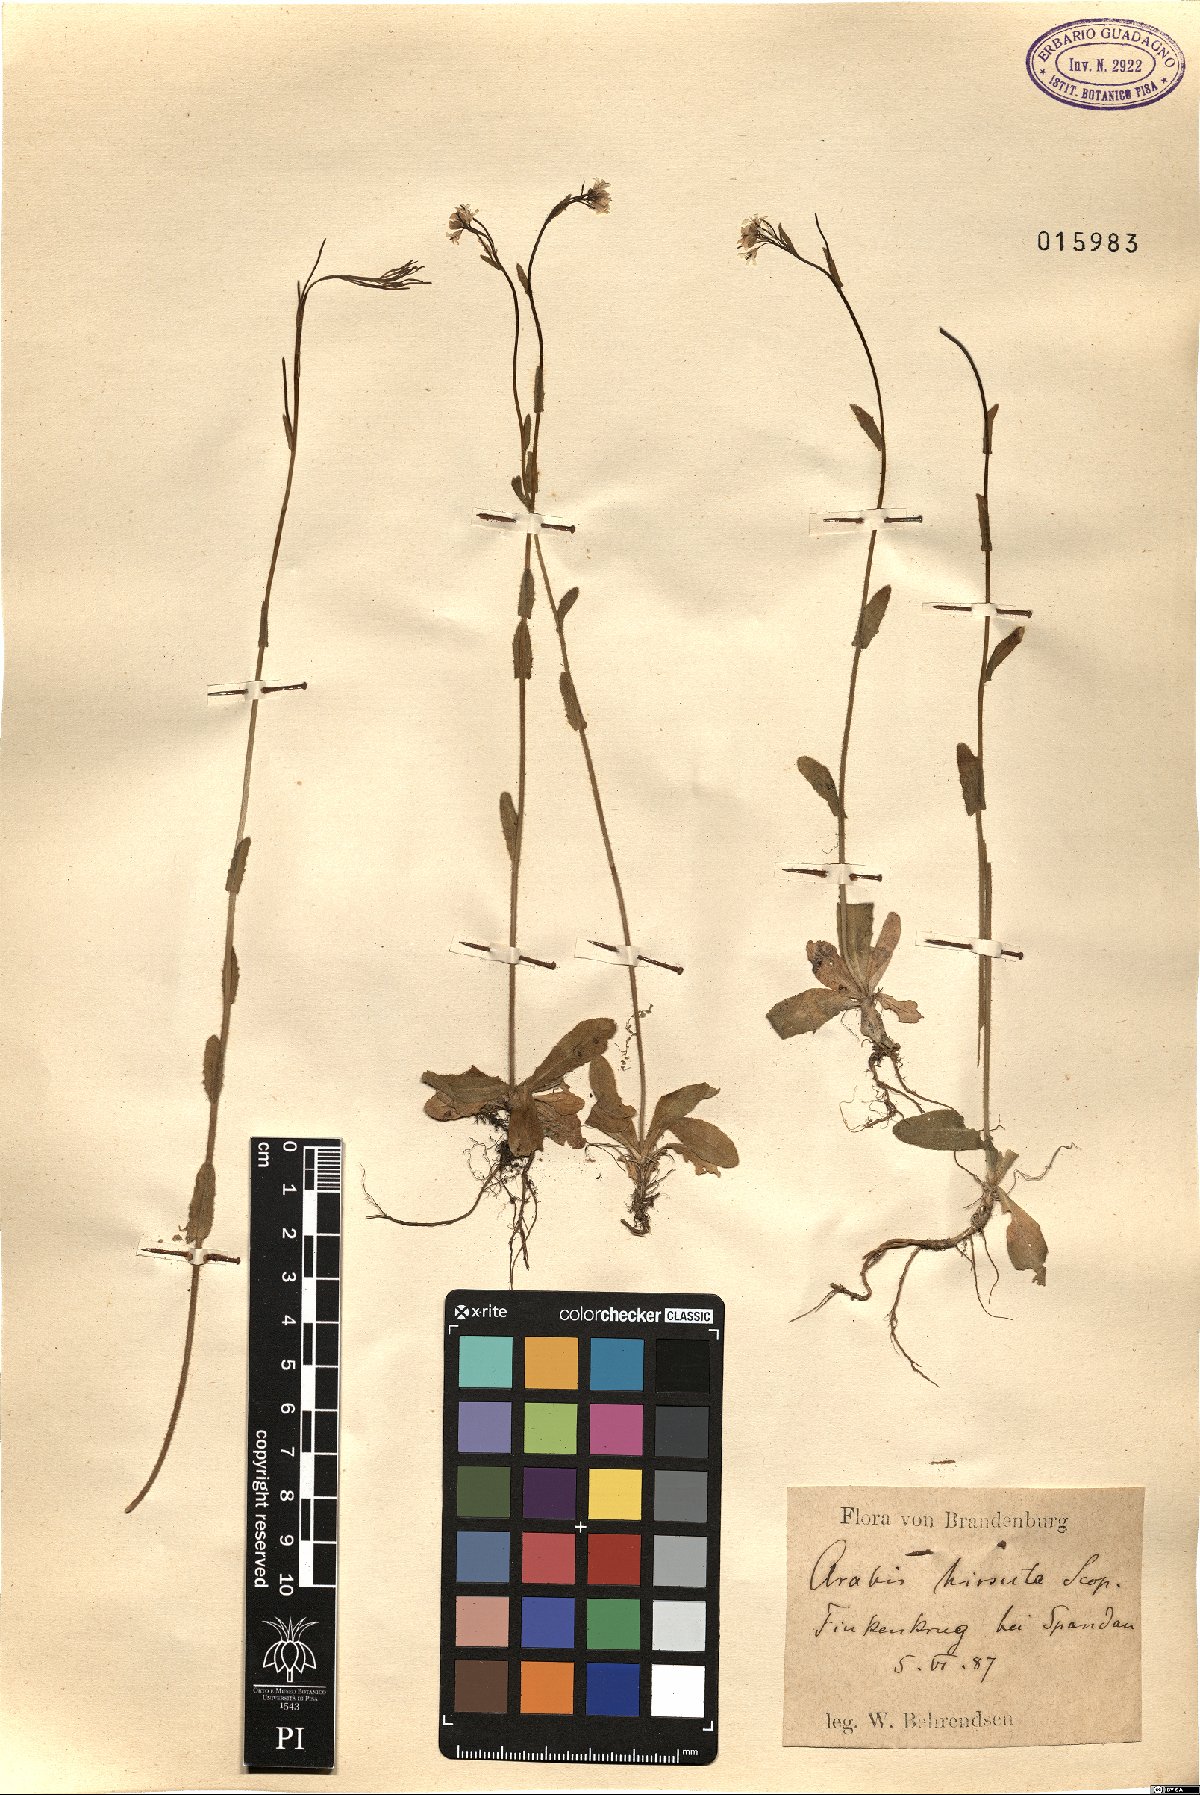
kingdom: Plantae
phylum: Tracheophyta
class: Magnoliopsida
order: Brassicales
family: Brassicaceae
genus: Arabis
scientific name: Arabis hirsuta
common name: Hairy rock-cress
